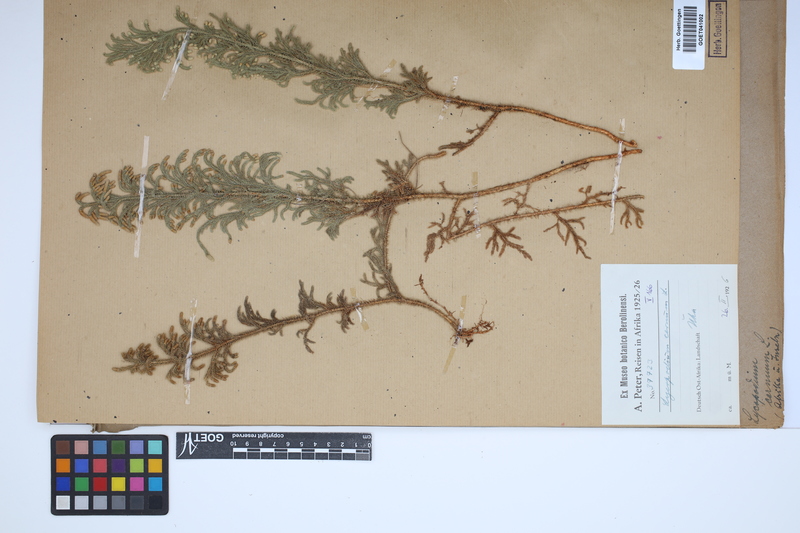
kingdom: Plantae
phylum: Tracheophyta
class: Lycopodiopsida
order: Lycopodiales
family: Lycopodiaceae
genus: Palhinhaea
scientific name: Palhinhaea cernua
